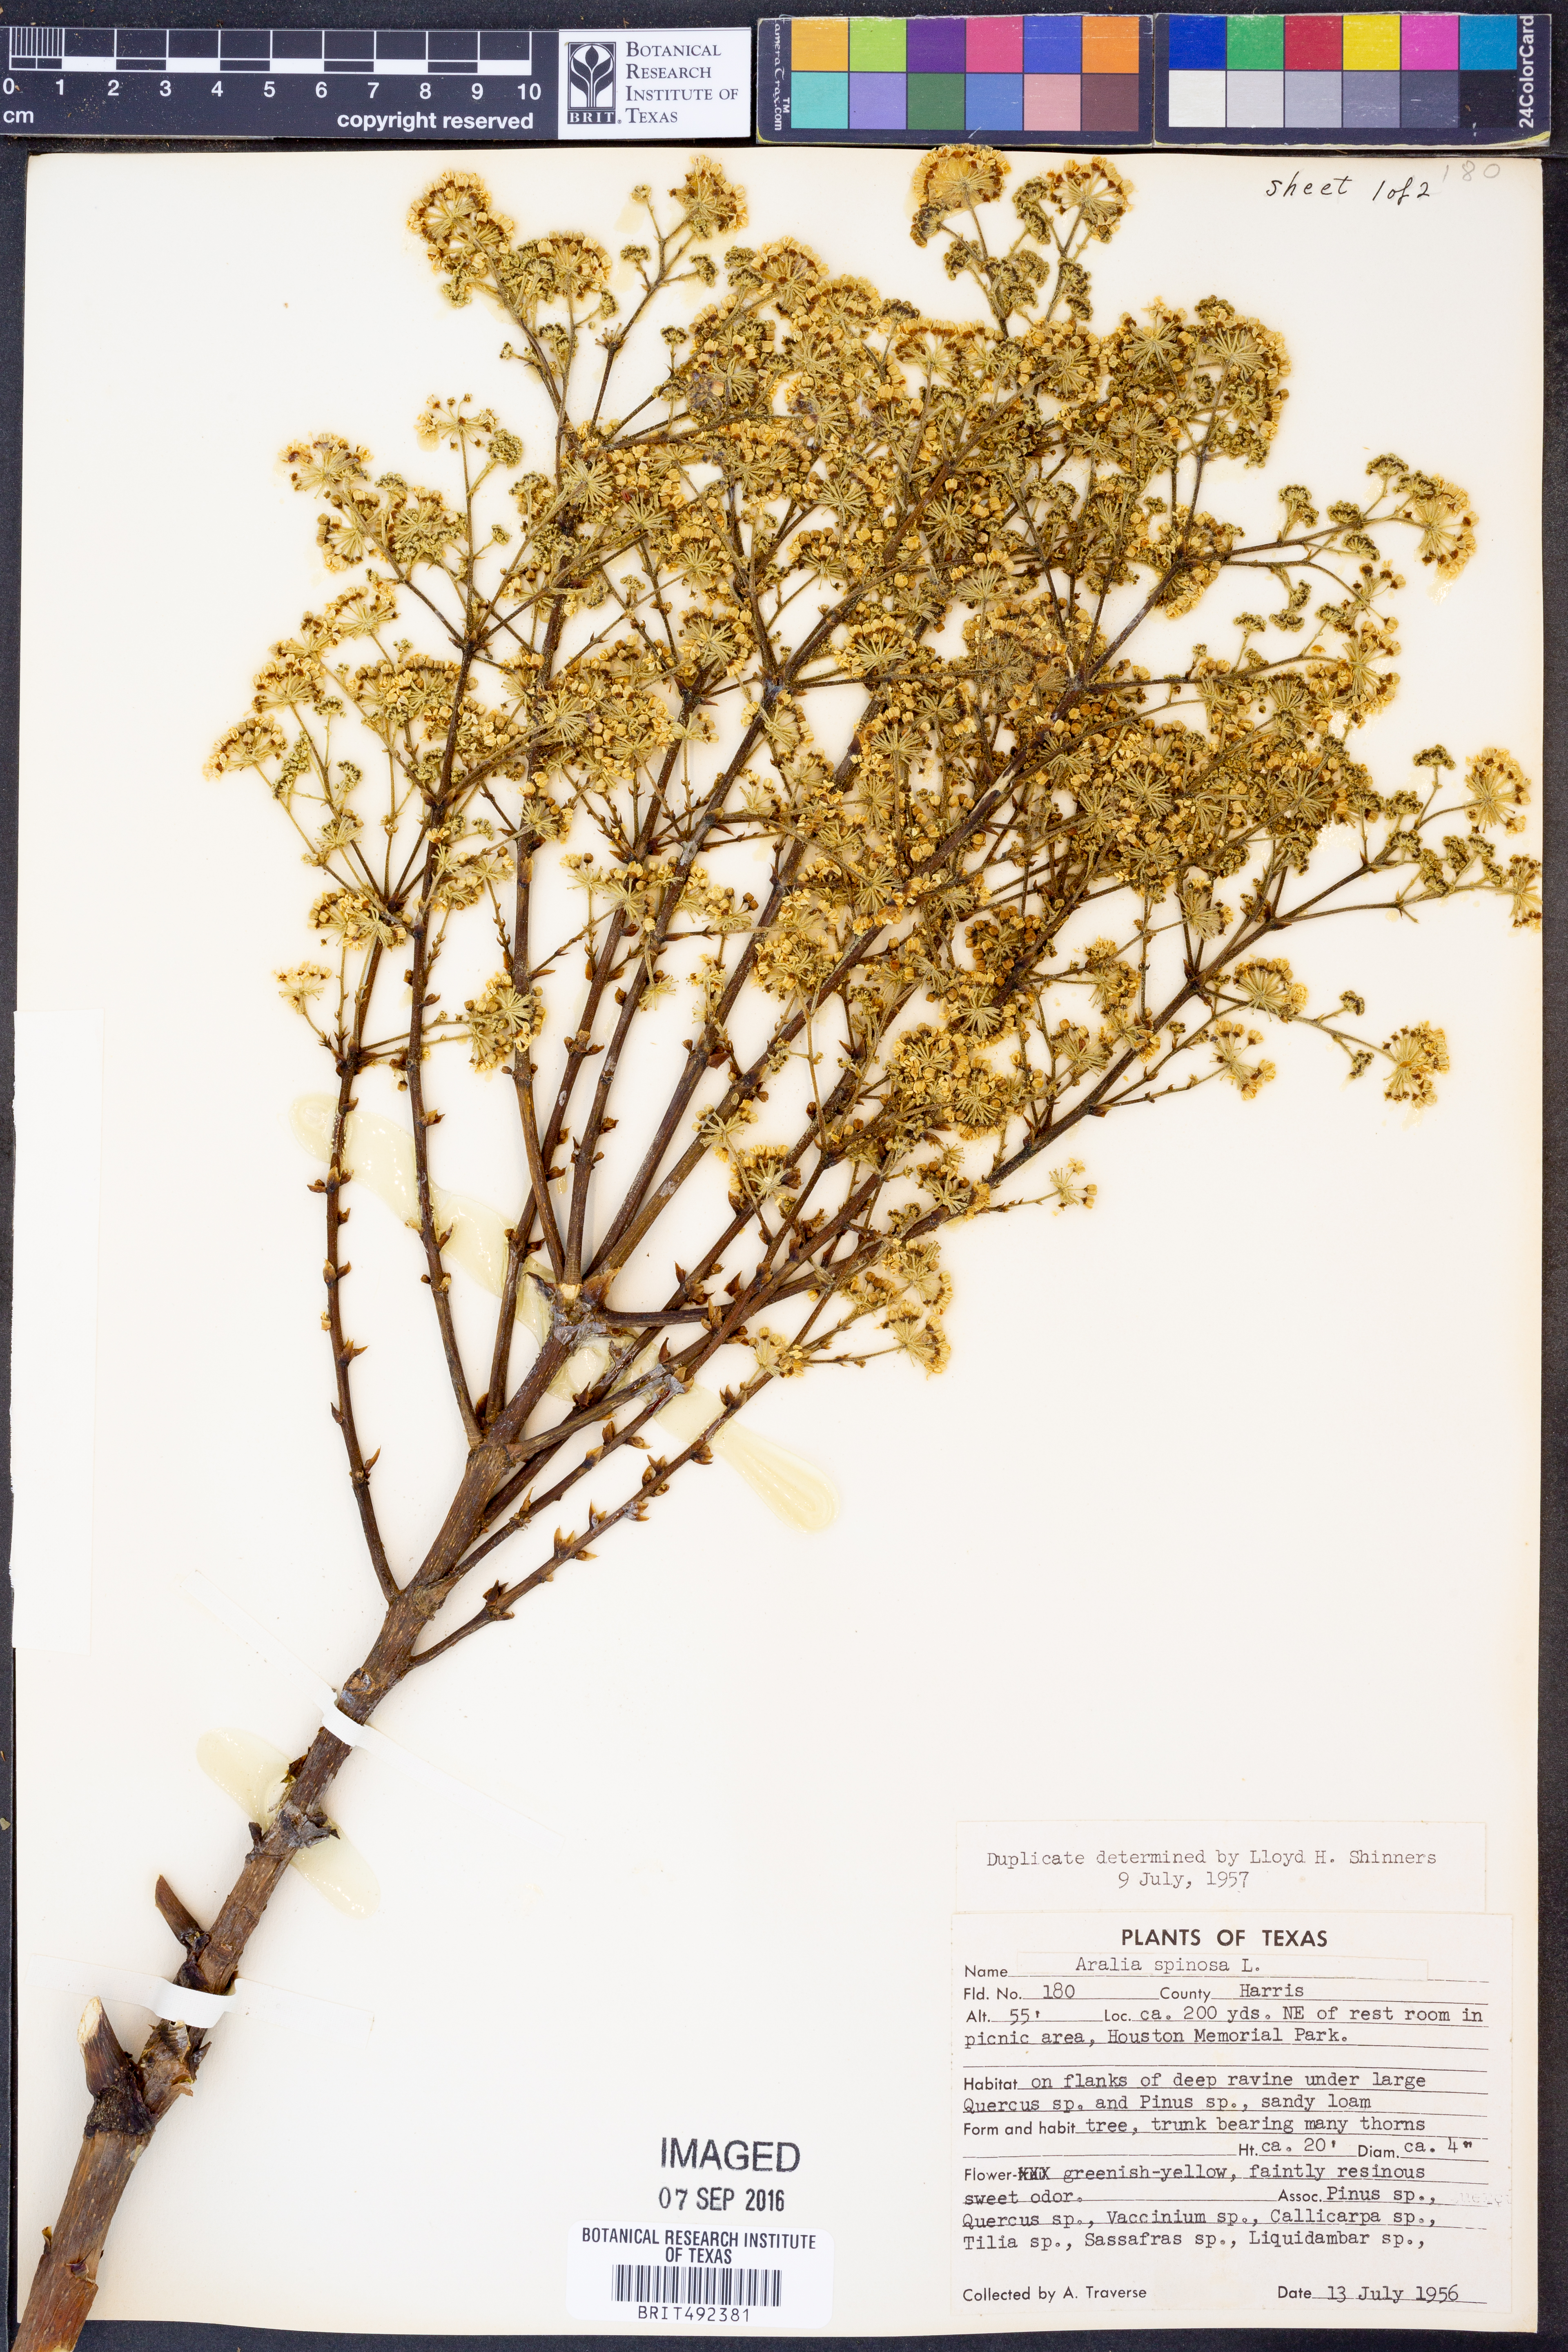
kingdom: Plantae
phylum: Tracheophyta
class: Magnoliopsida
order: Apiales
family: Araliaceae
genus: Aralia
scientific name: Aralia spinosa
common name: Hercules'-club
